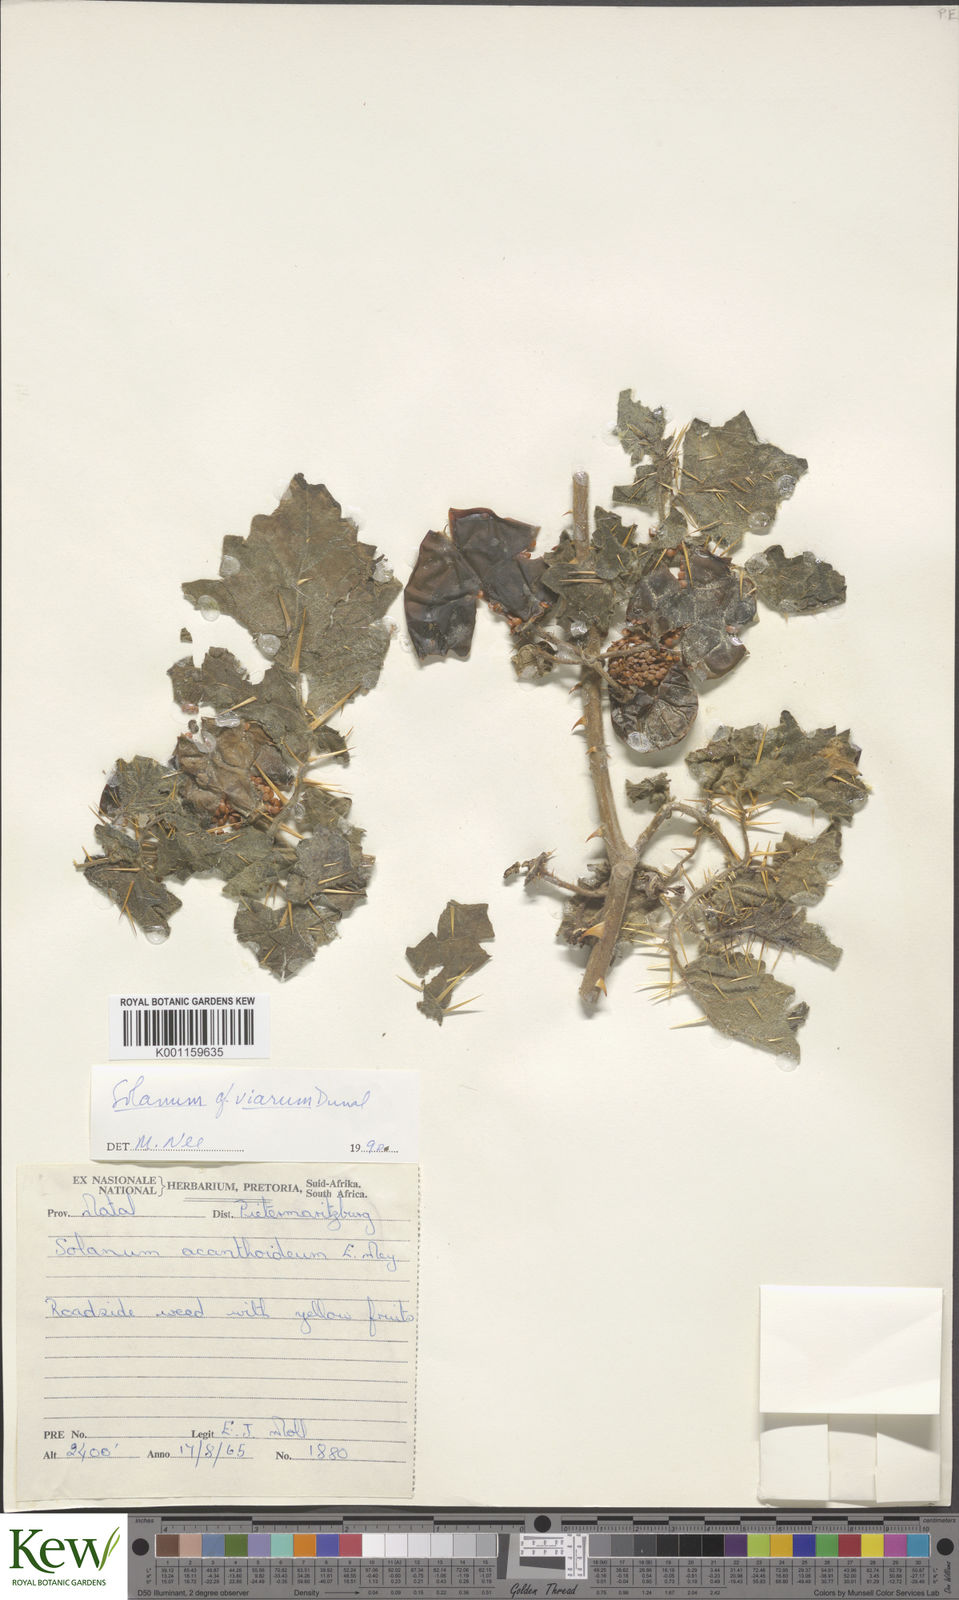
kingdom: Plantae
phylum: Tracheophyta
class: Magnoliopsida
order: Solanales
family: Solanaceae
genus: Solanum
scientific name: Solanum viarum
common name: Tropical soda apple
